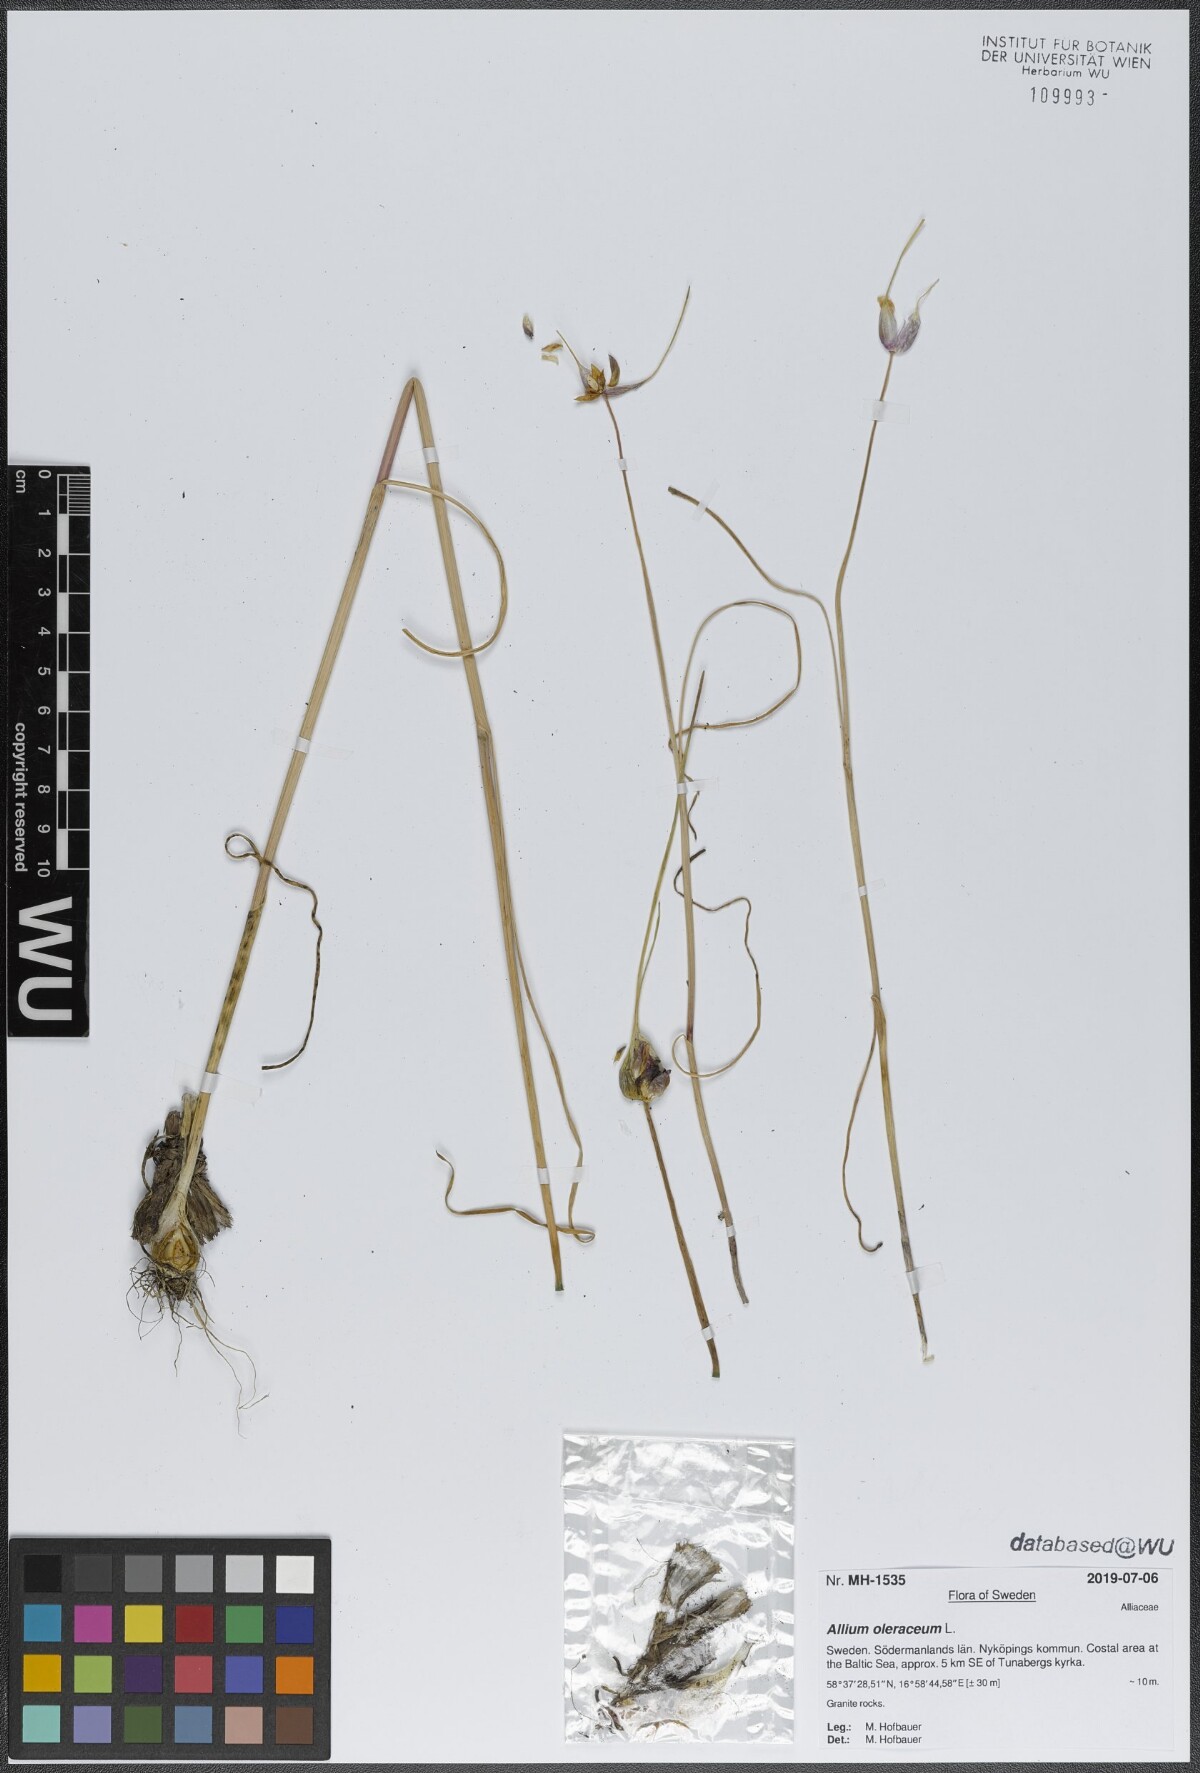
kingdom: Plantae
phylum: Tracheophyta
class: Liliopsida
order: Asparagales
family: Amaryllidaceae
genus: Allium
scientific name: Allium oleraceum
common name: Field garlic
